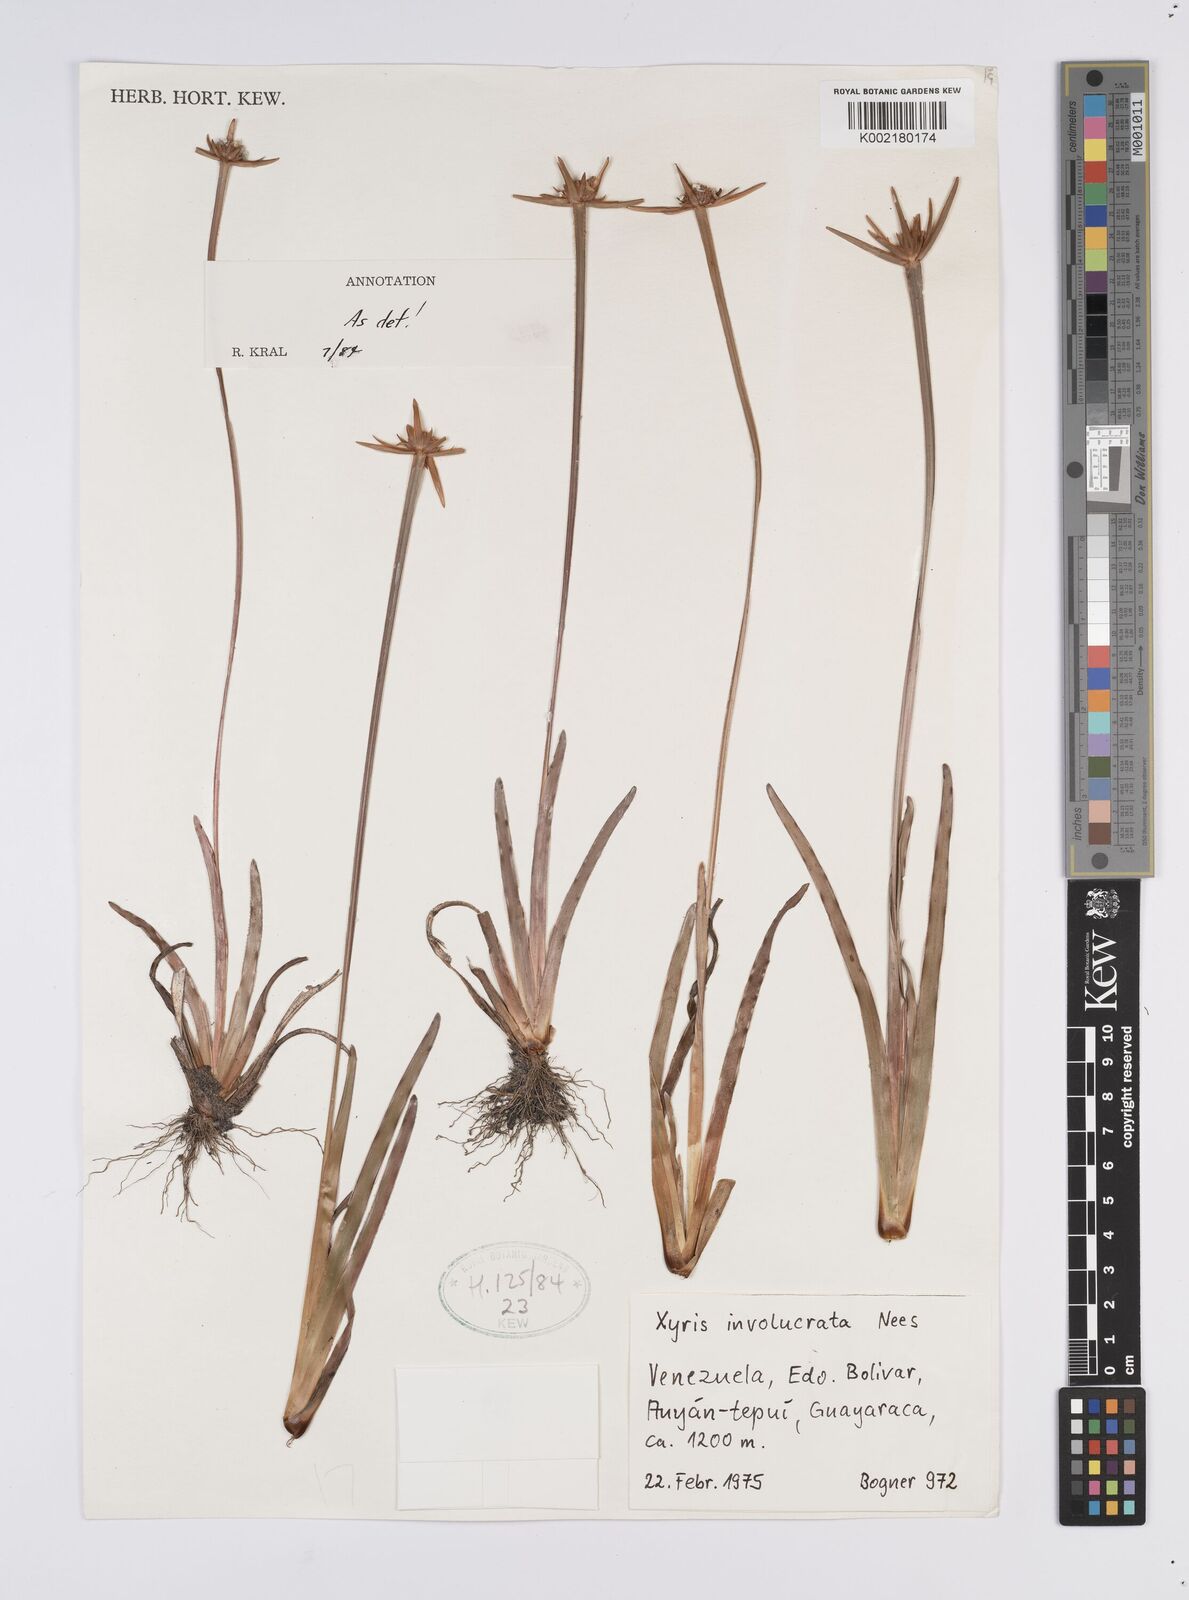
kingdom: Plantae
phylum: Tracheophyta
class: Liliopsida
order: Poales
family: Xyridaceae
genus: Xyris
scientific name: Xyris involucrata
